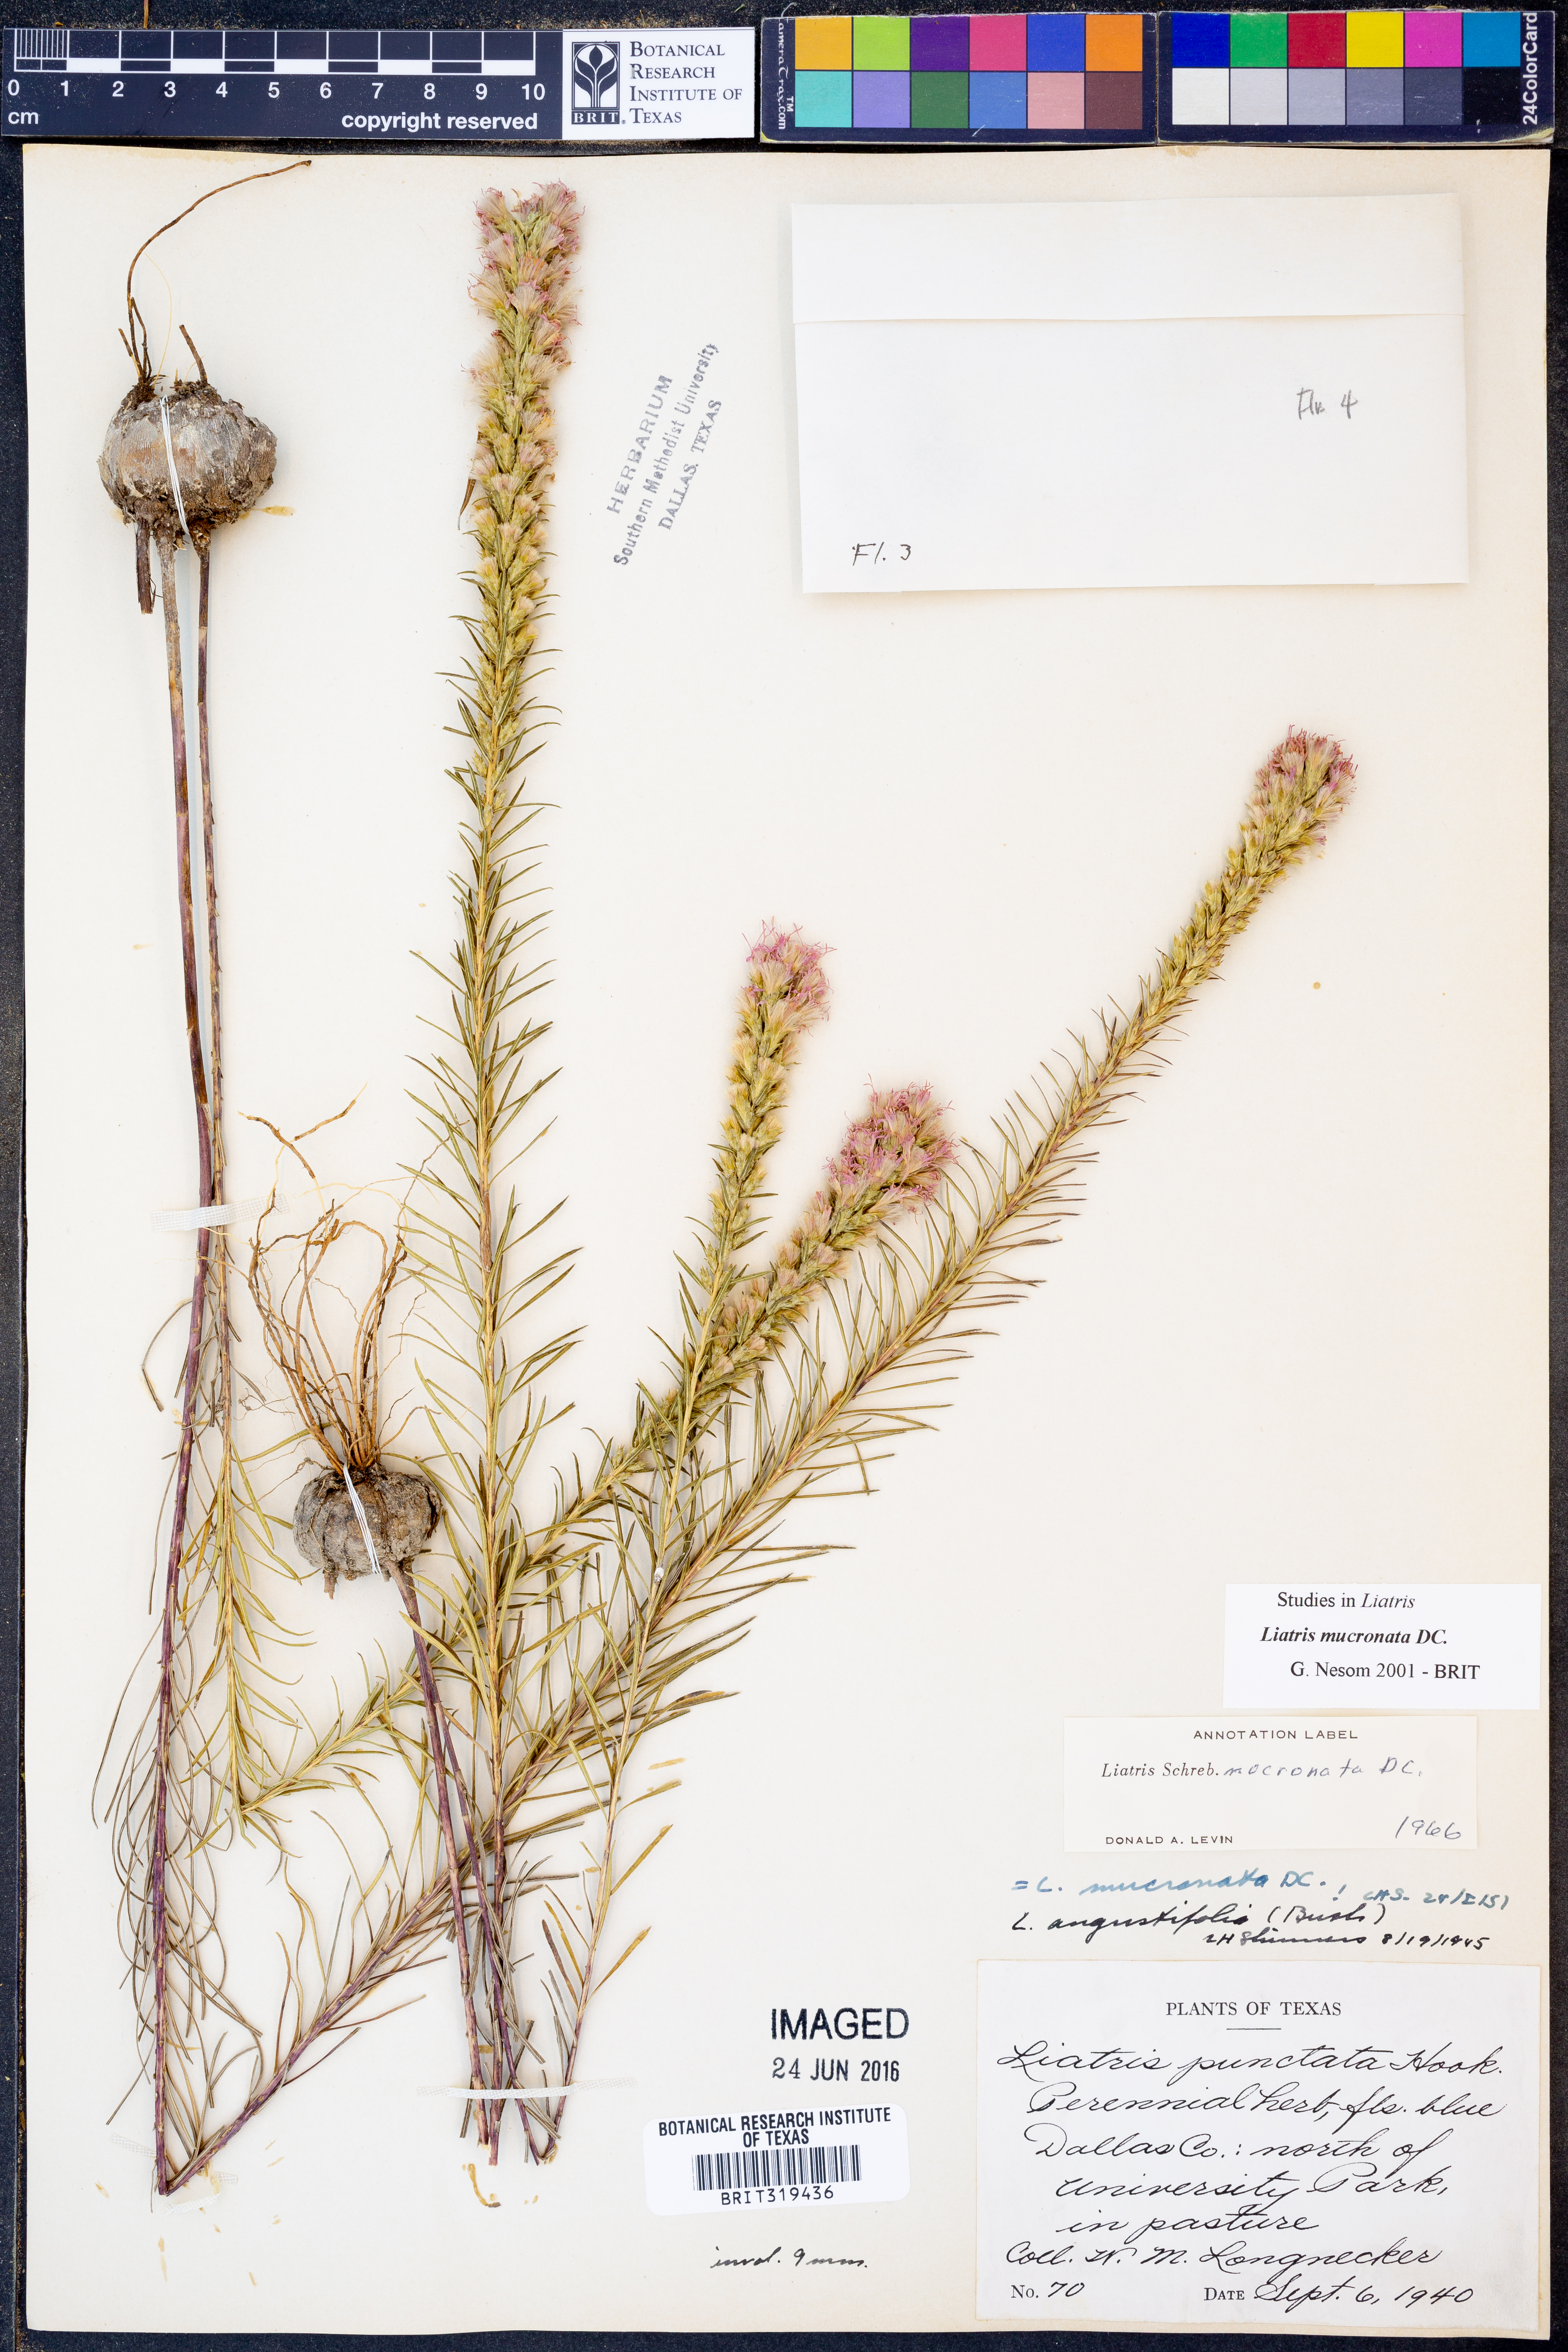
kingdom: Plantae
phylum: Tracheophyta
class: Magnoliopsida
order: Asterales
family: Asteraceae
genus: Liatris
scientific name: Liatris mucronata
